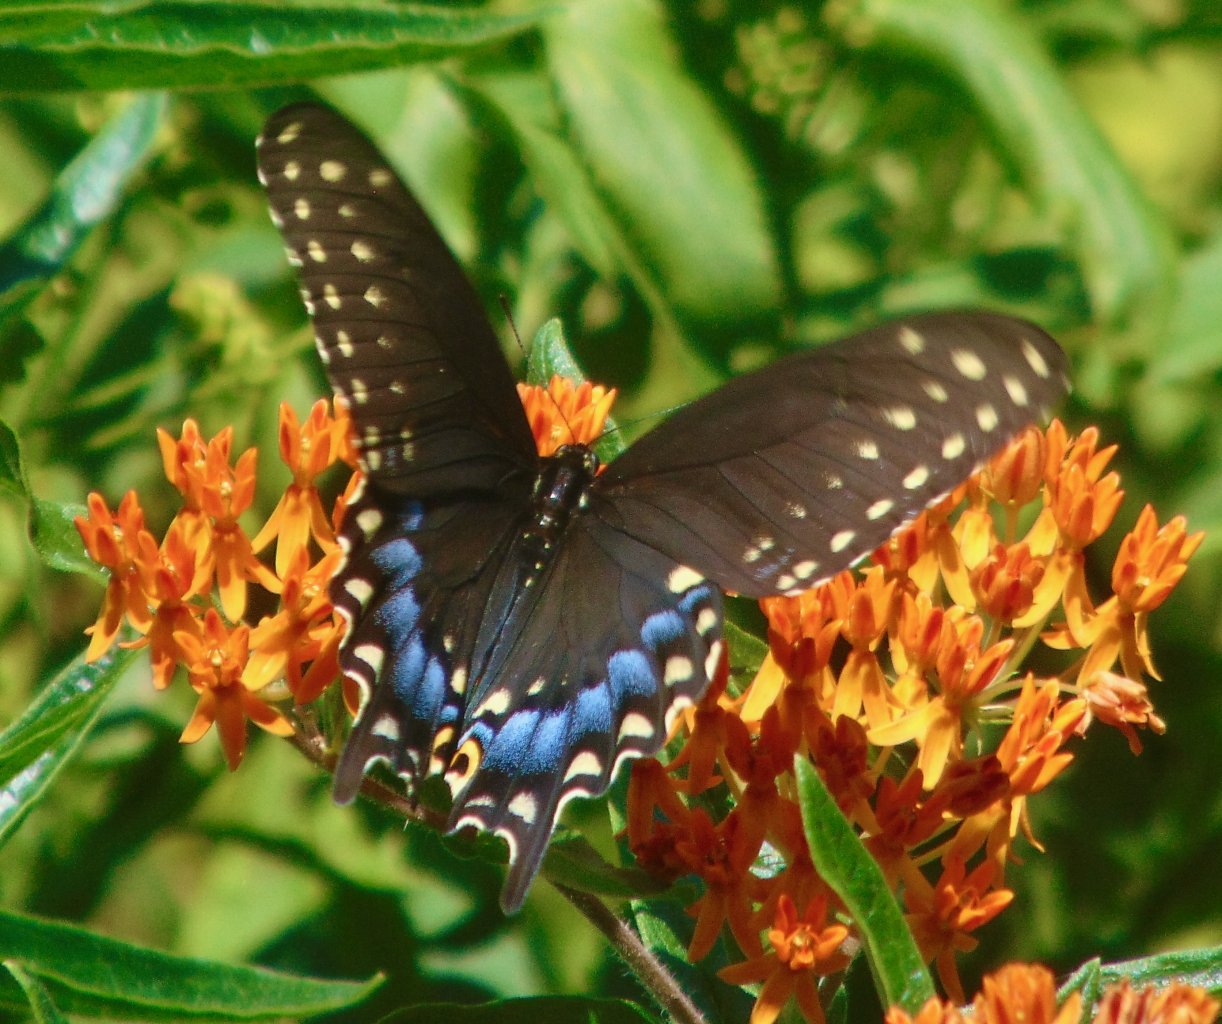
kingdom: Animalia
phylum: Arthropoda
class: Insecta
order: Lepidoptera
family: Papilionidae
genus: Papilio
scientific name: Papilio polyxenes
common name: Black Swallowtail
